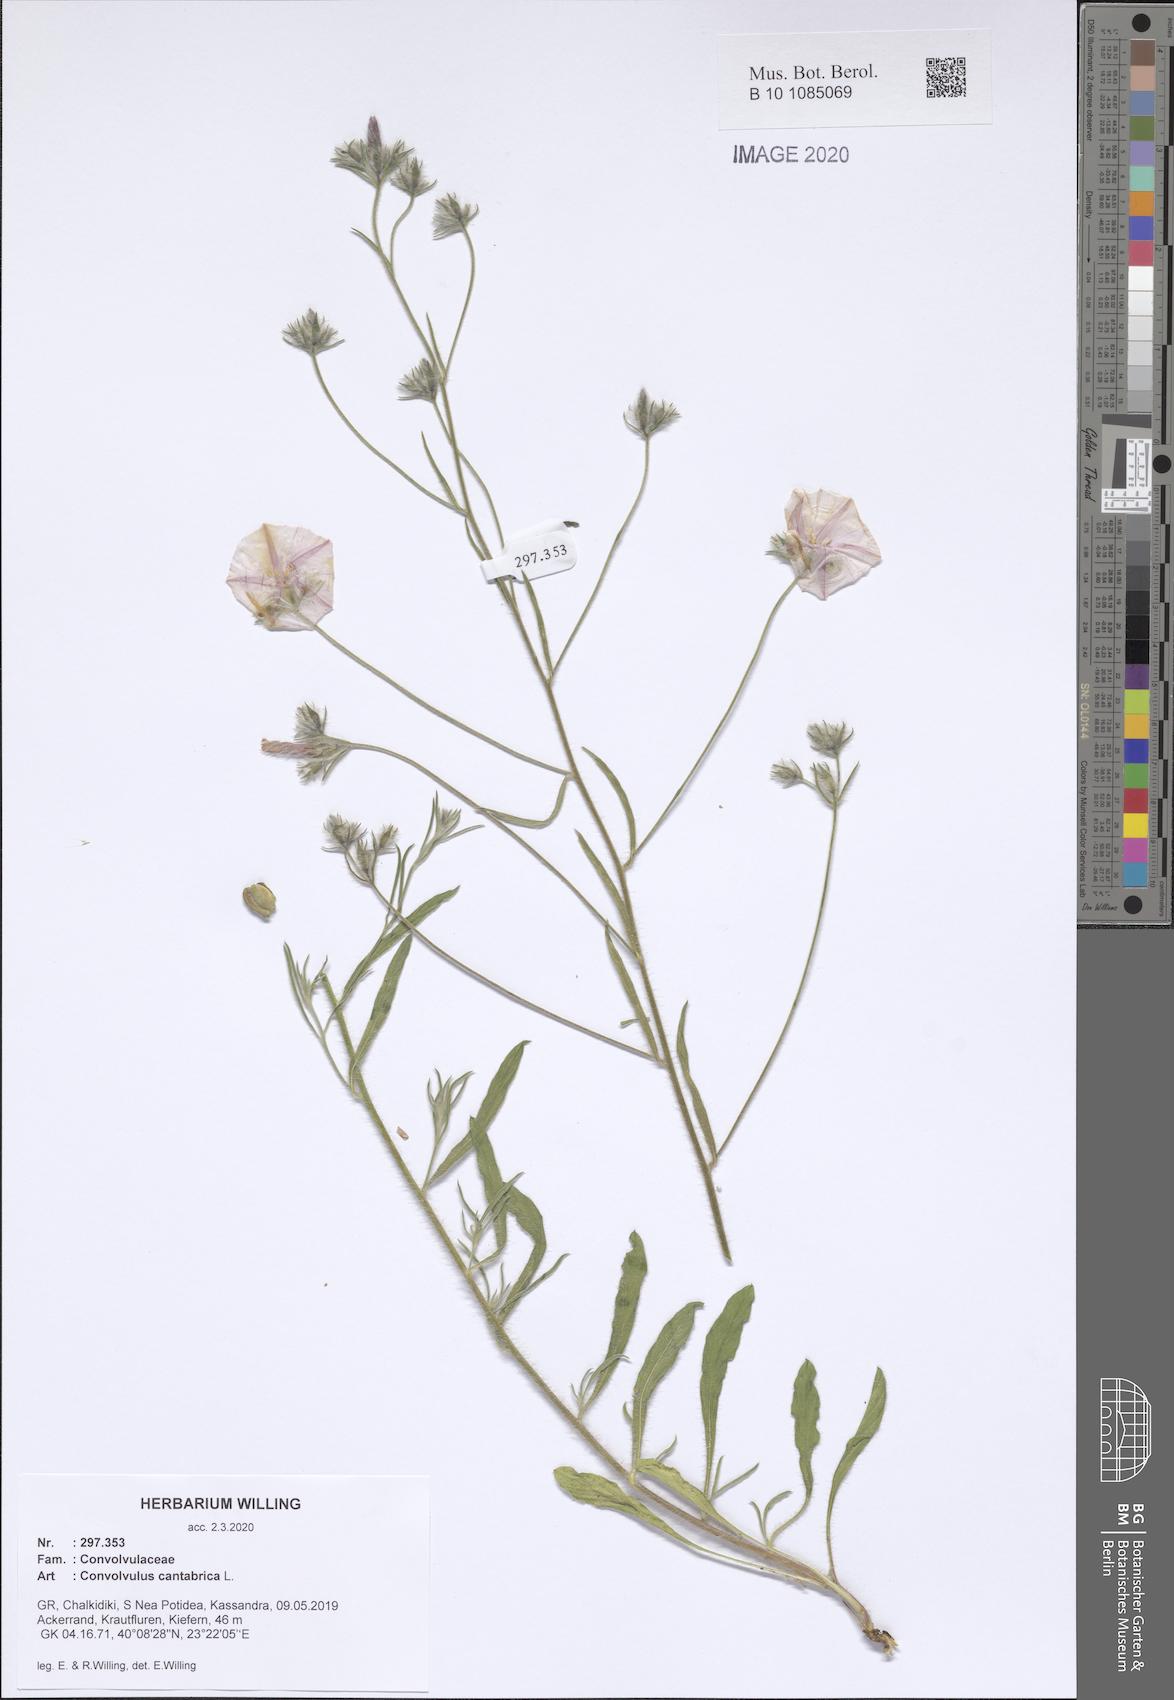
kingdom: Plantae
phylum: Tracheophyta
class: Magnoliopsida
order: Solanales
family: Convolvulaceae
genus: Convolvulus
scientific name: Convolvulus cantabrica
